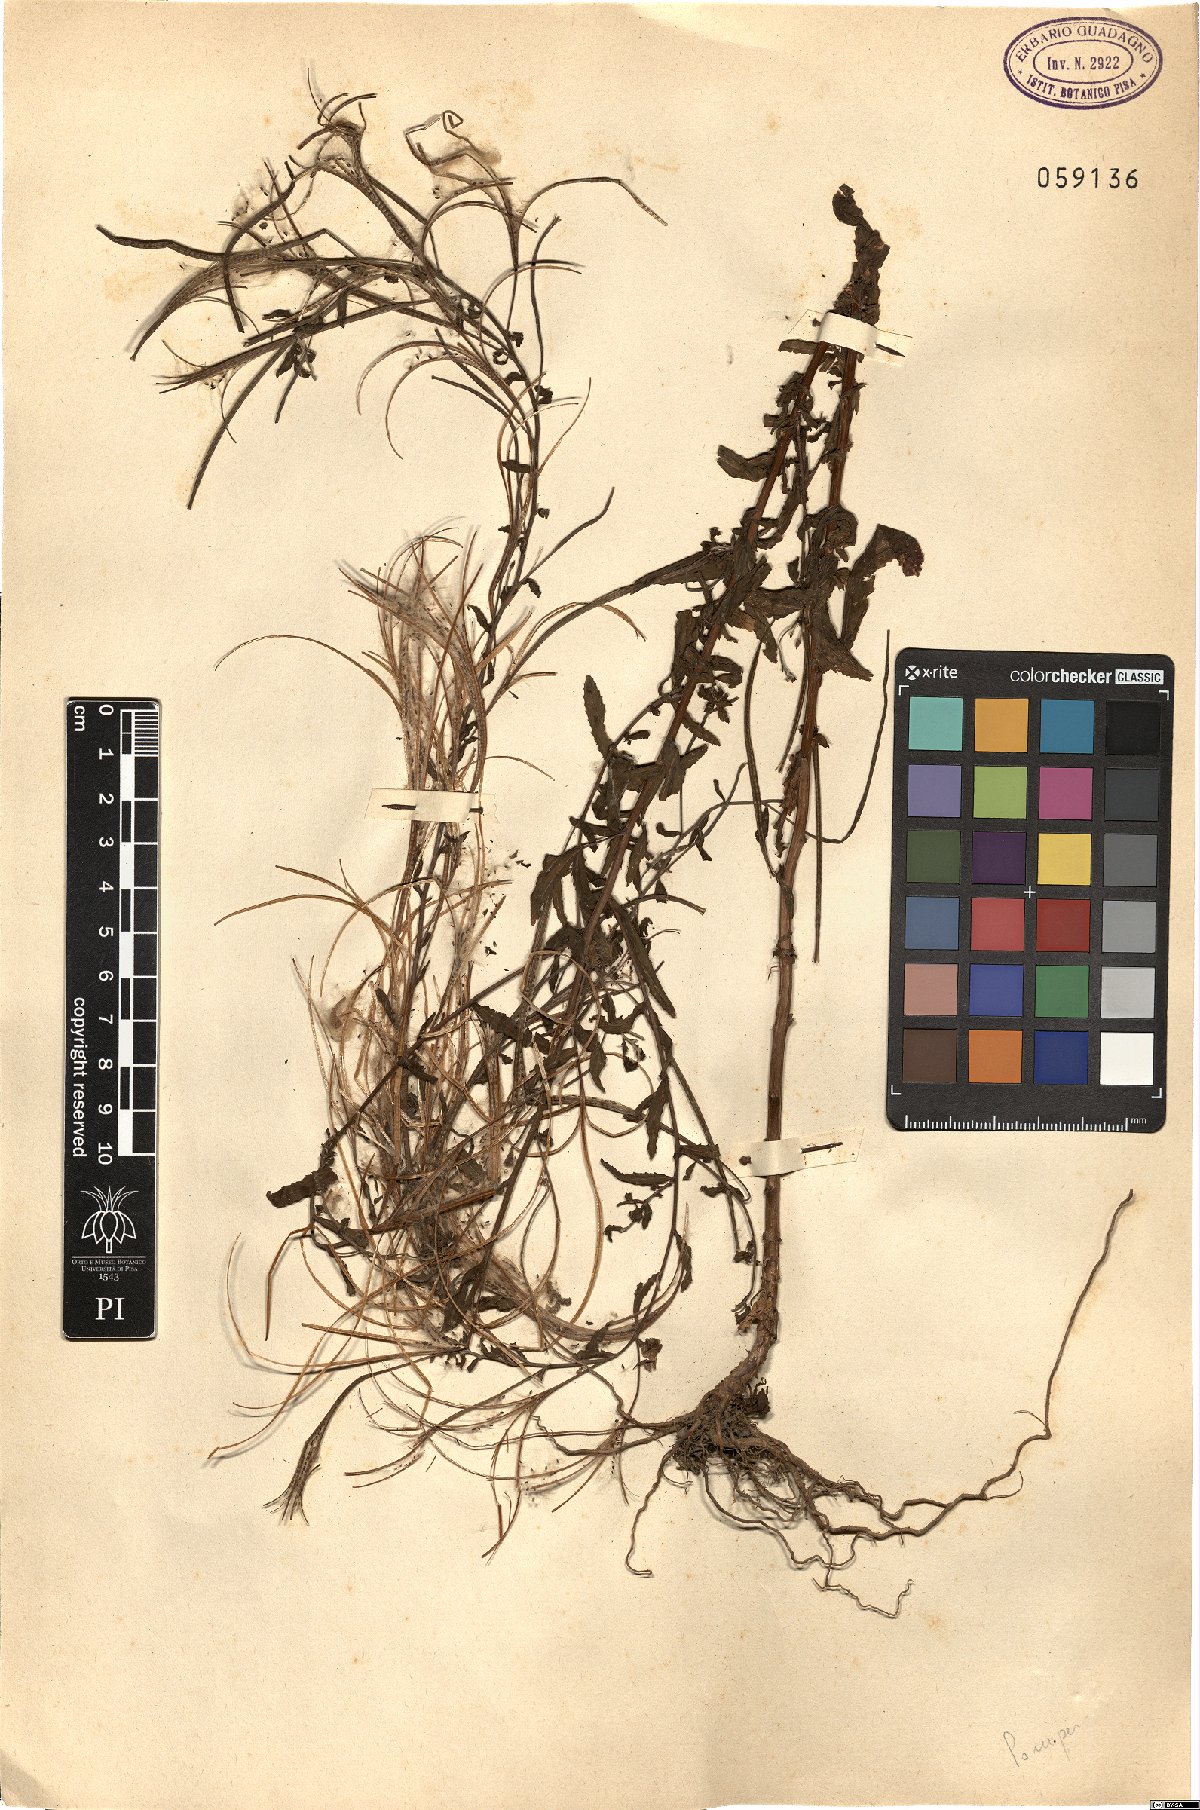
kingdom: Plantae
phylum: Tracheophyta
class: Magnoliopsida
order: Myrtales
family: Onagraceae
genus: Epilobium
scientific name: Epilobium
